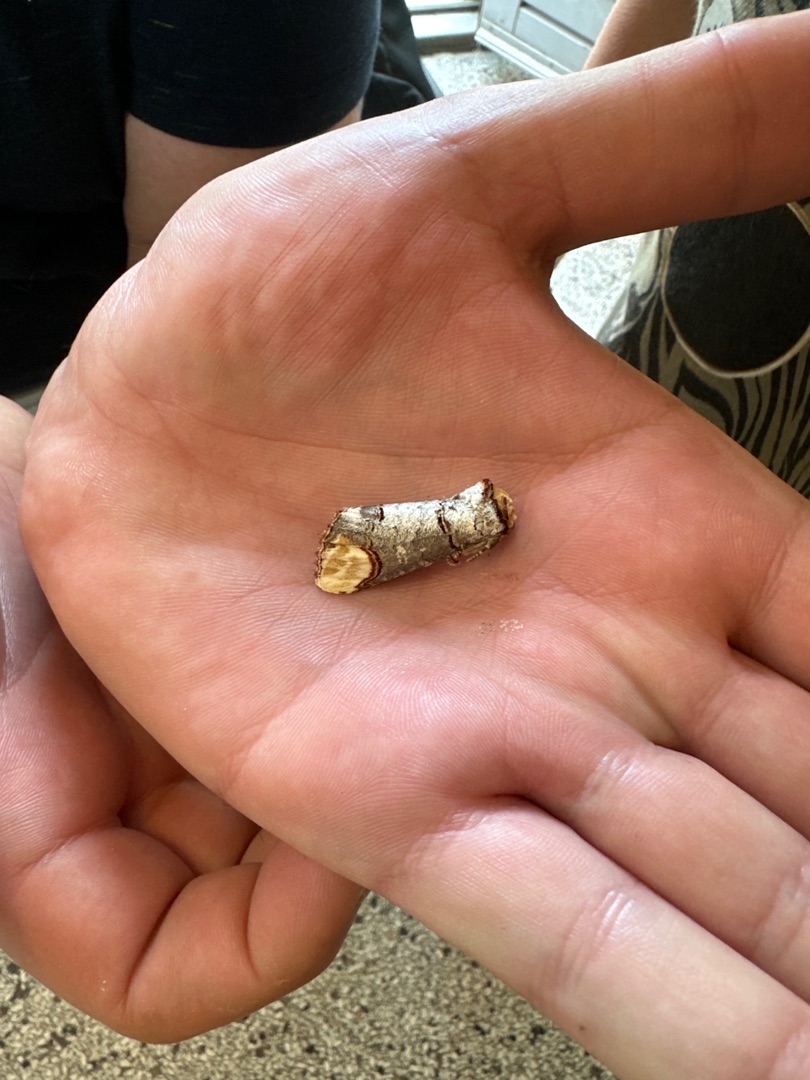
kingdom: Animalia
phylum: Arthropoda
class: Insecta
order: Lepidoptera
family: Notodontidae
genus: Phalera
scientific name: Phalera bucephala
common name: Måneplet
